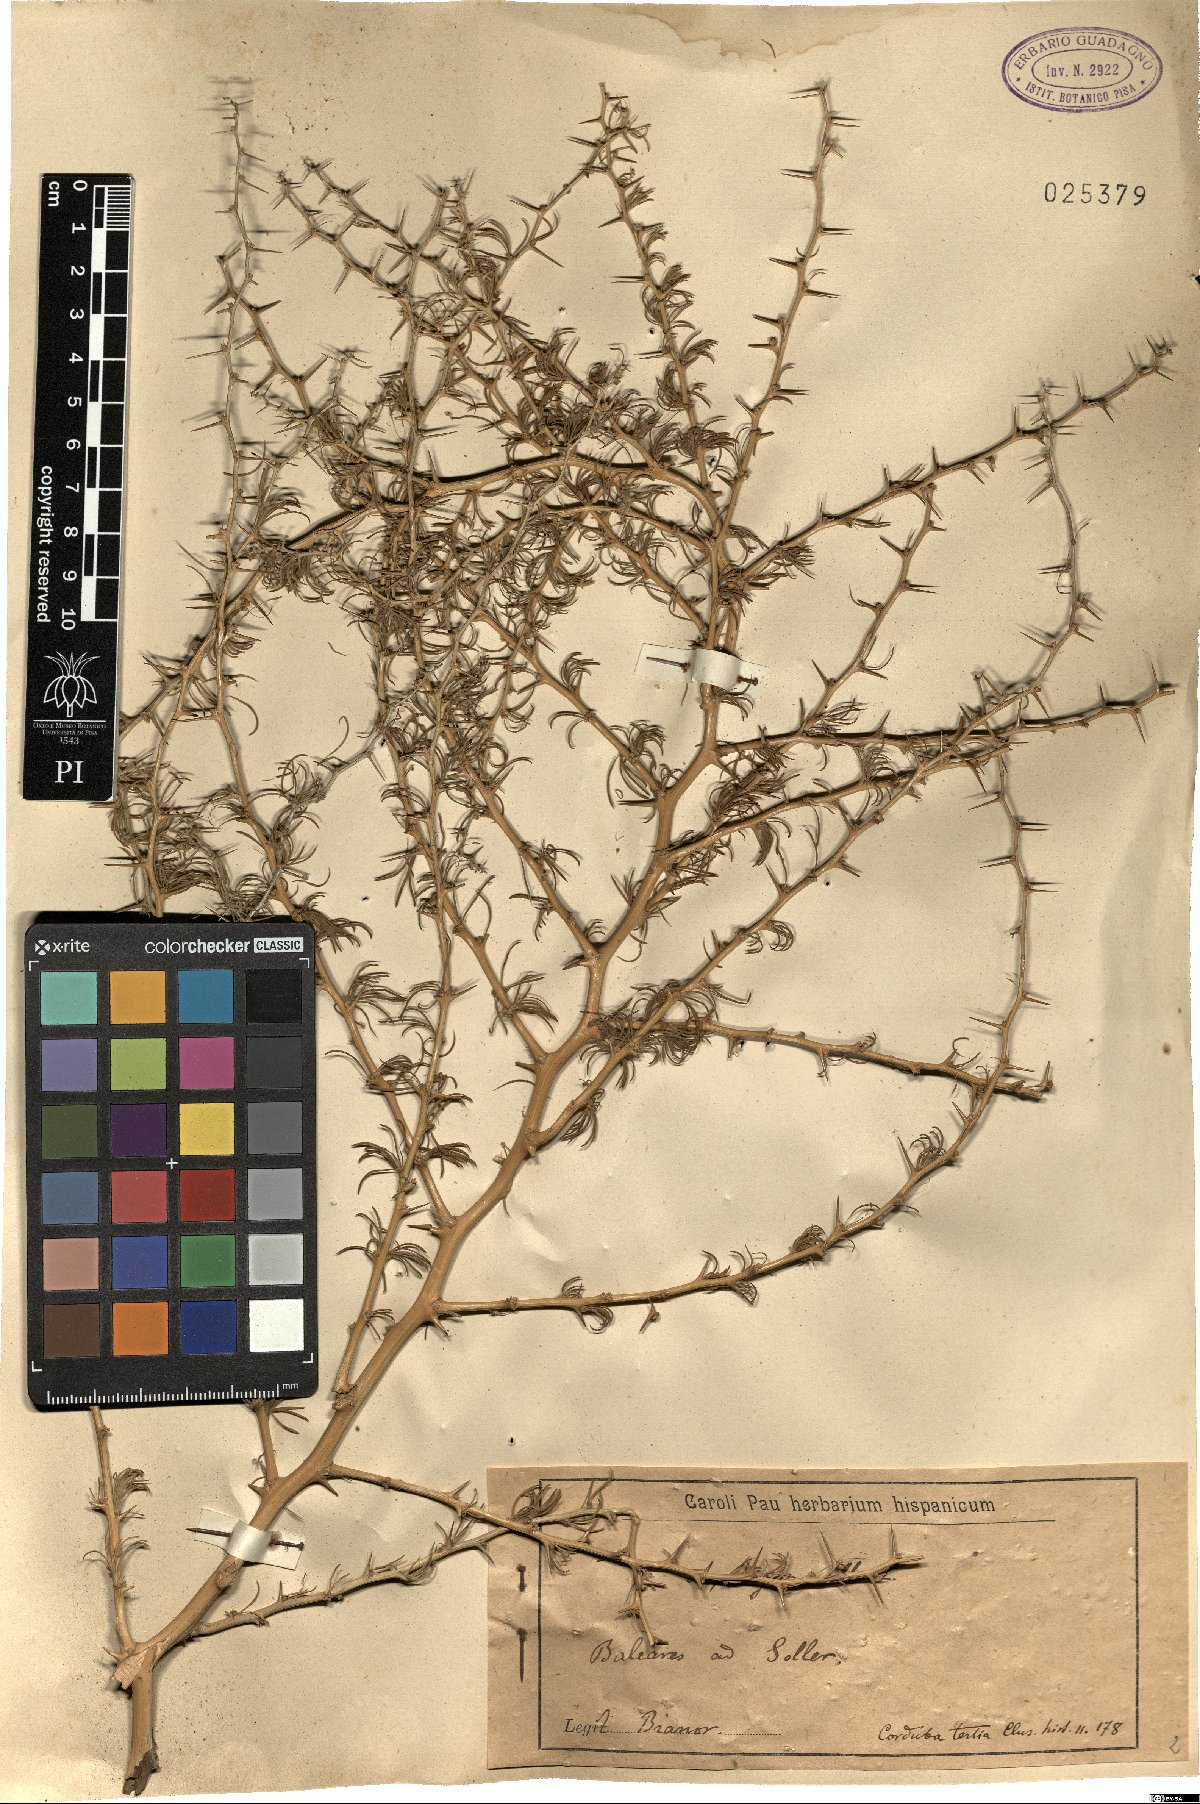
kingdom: Plantae
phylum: Tracheophyta
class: Liliopsida
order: Asparagales
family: Asparagaceae
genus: Asparagus
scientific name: Asparagus albus
